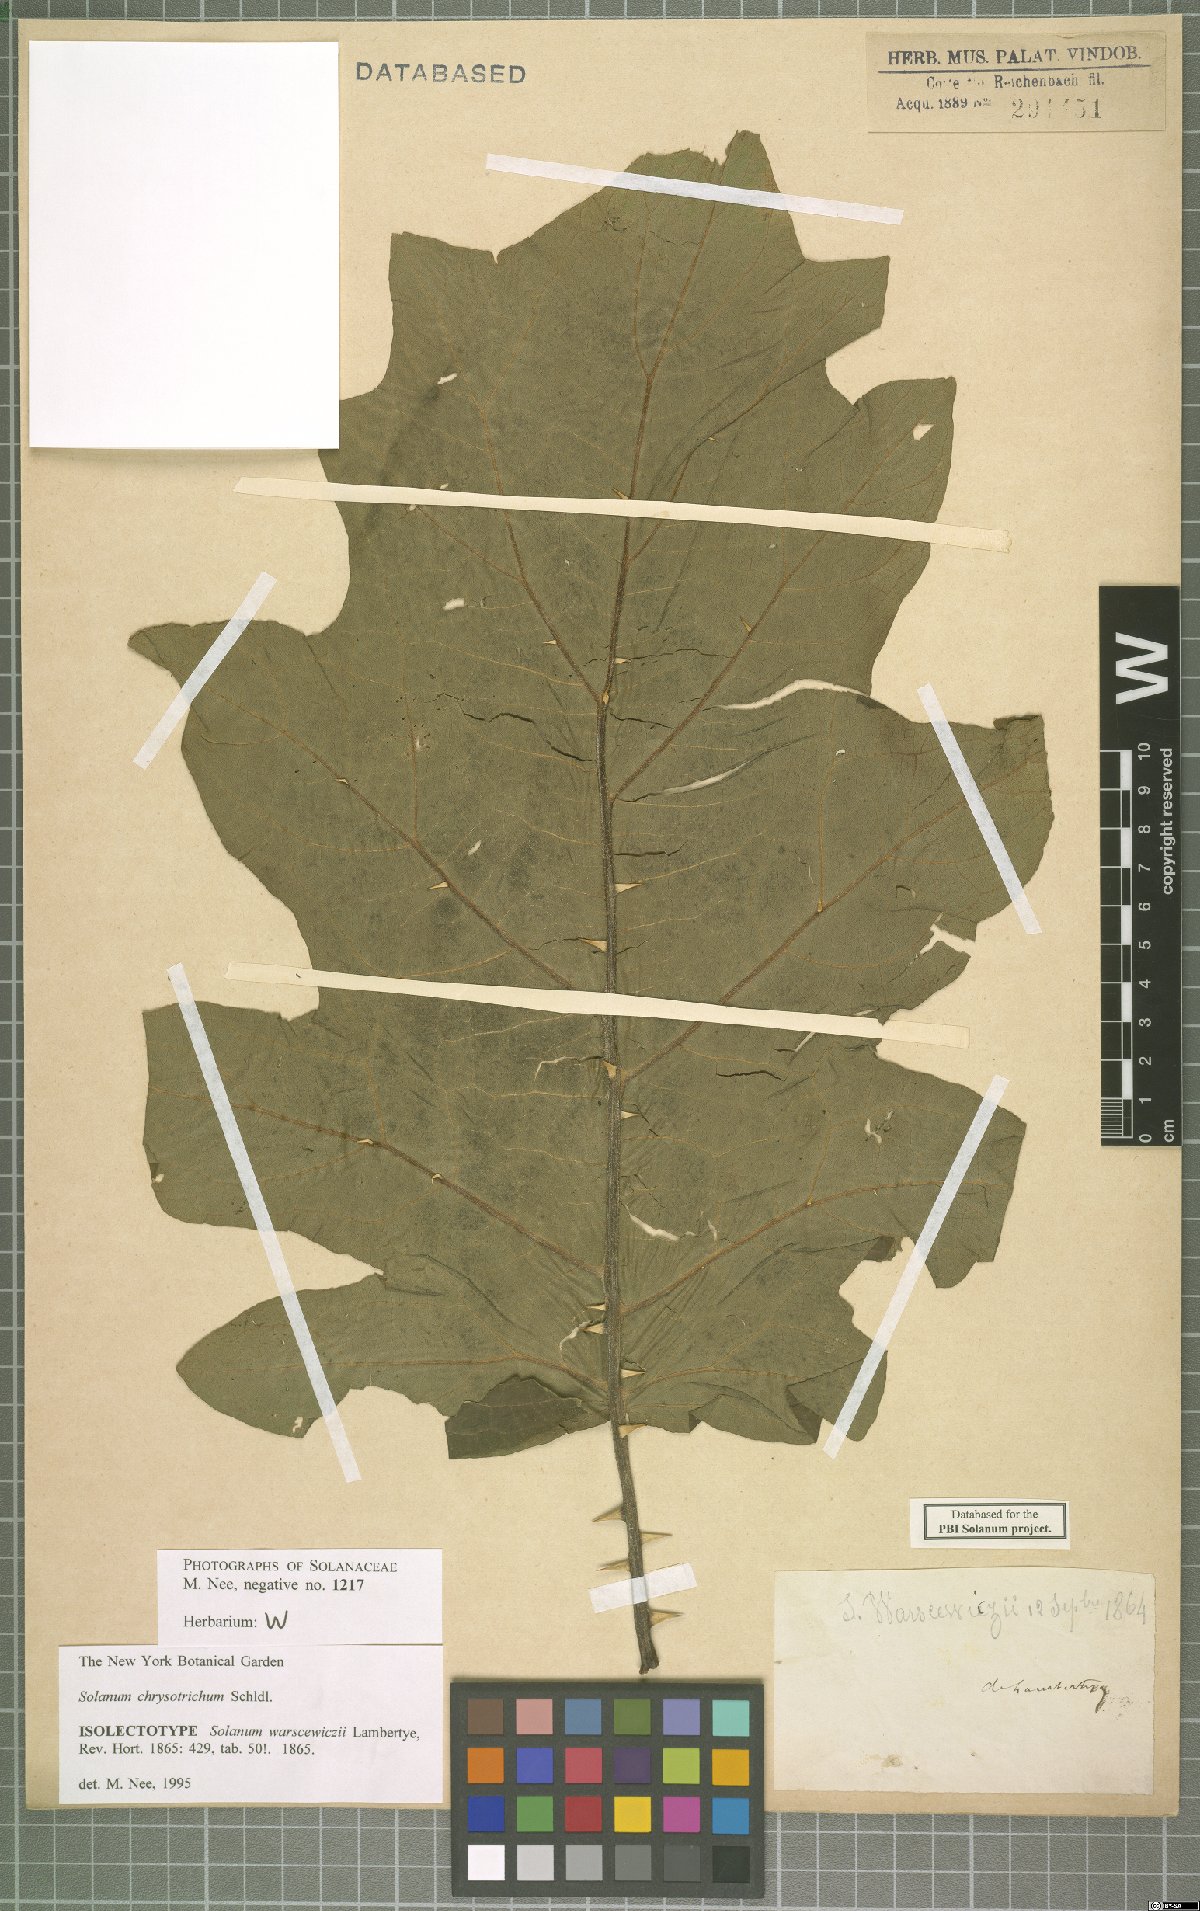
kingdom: Plantae
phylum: Tracheophyta
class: Magnoliopsida
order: Solanales
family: Solanaceae
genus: Solanum
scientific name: Solanum chrysotrichum
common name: Nightshade
